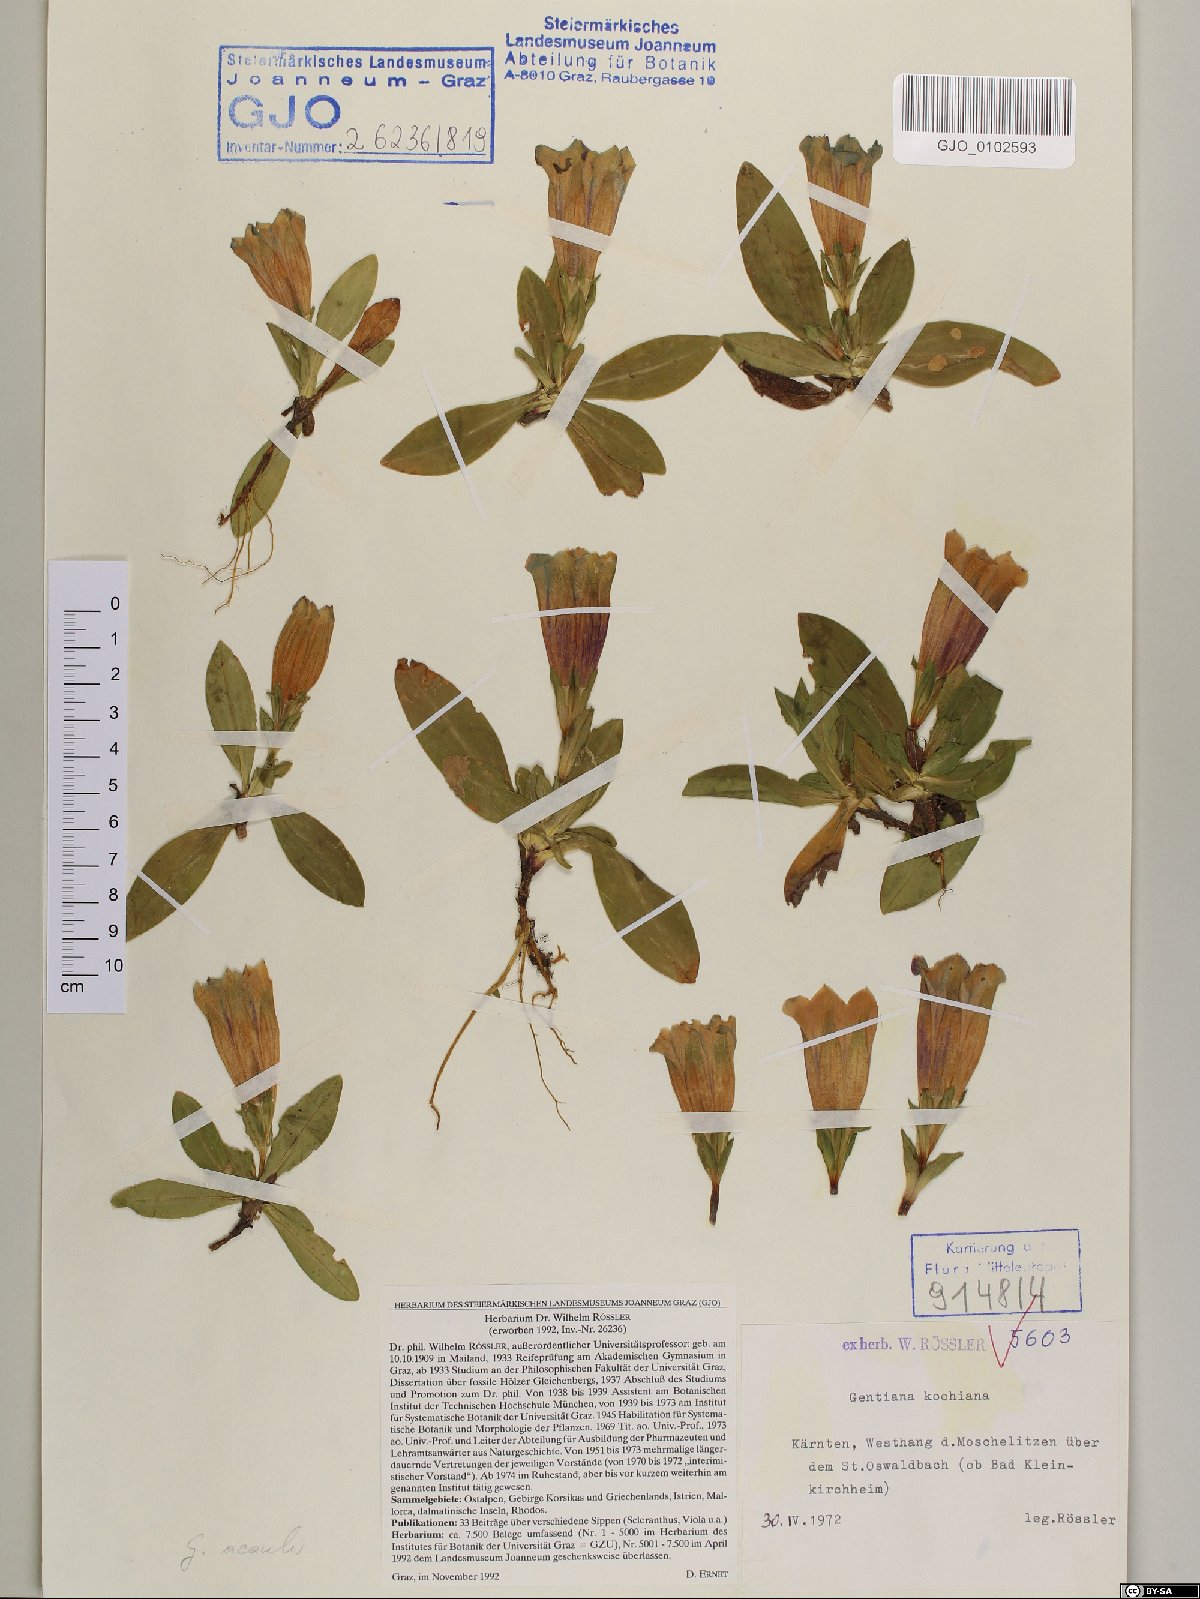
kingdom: Plantae
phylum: Tracheophyta
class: Magnoliopsida
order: Gentianales
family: Gentianaceae
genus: Gentiana
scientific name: Gentiana acaulis
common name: Trumpet gentian
